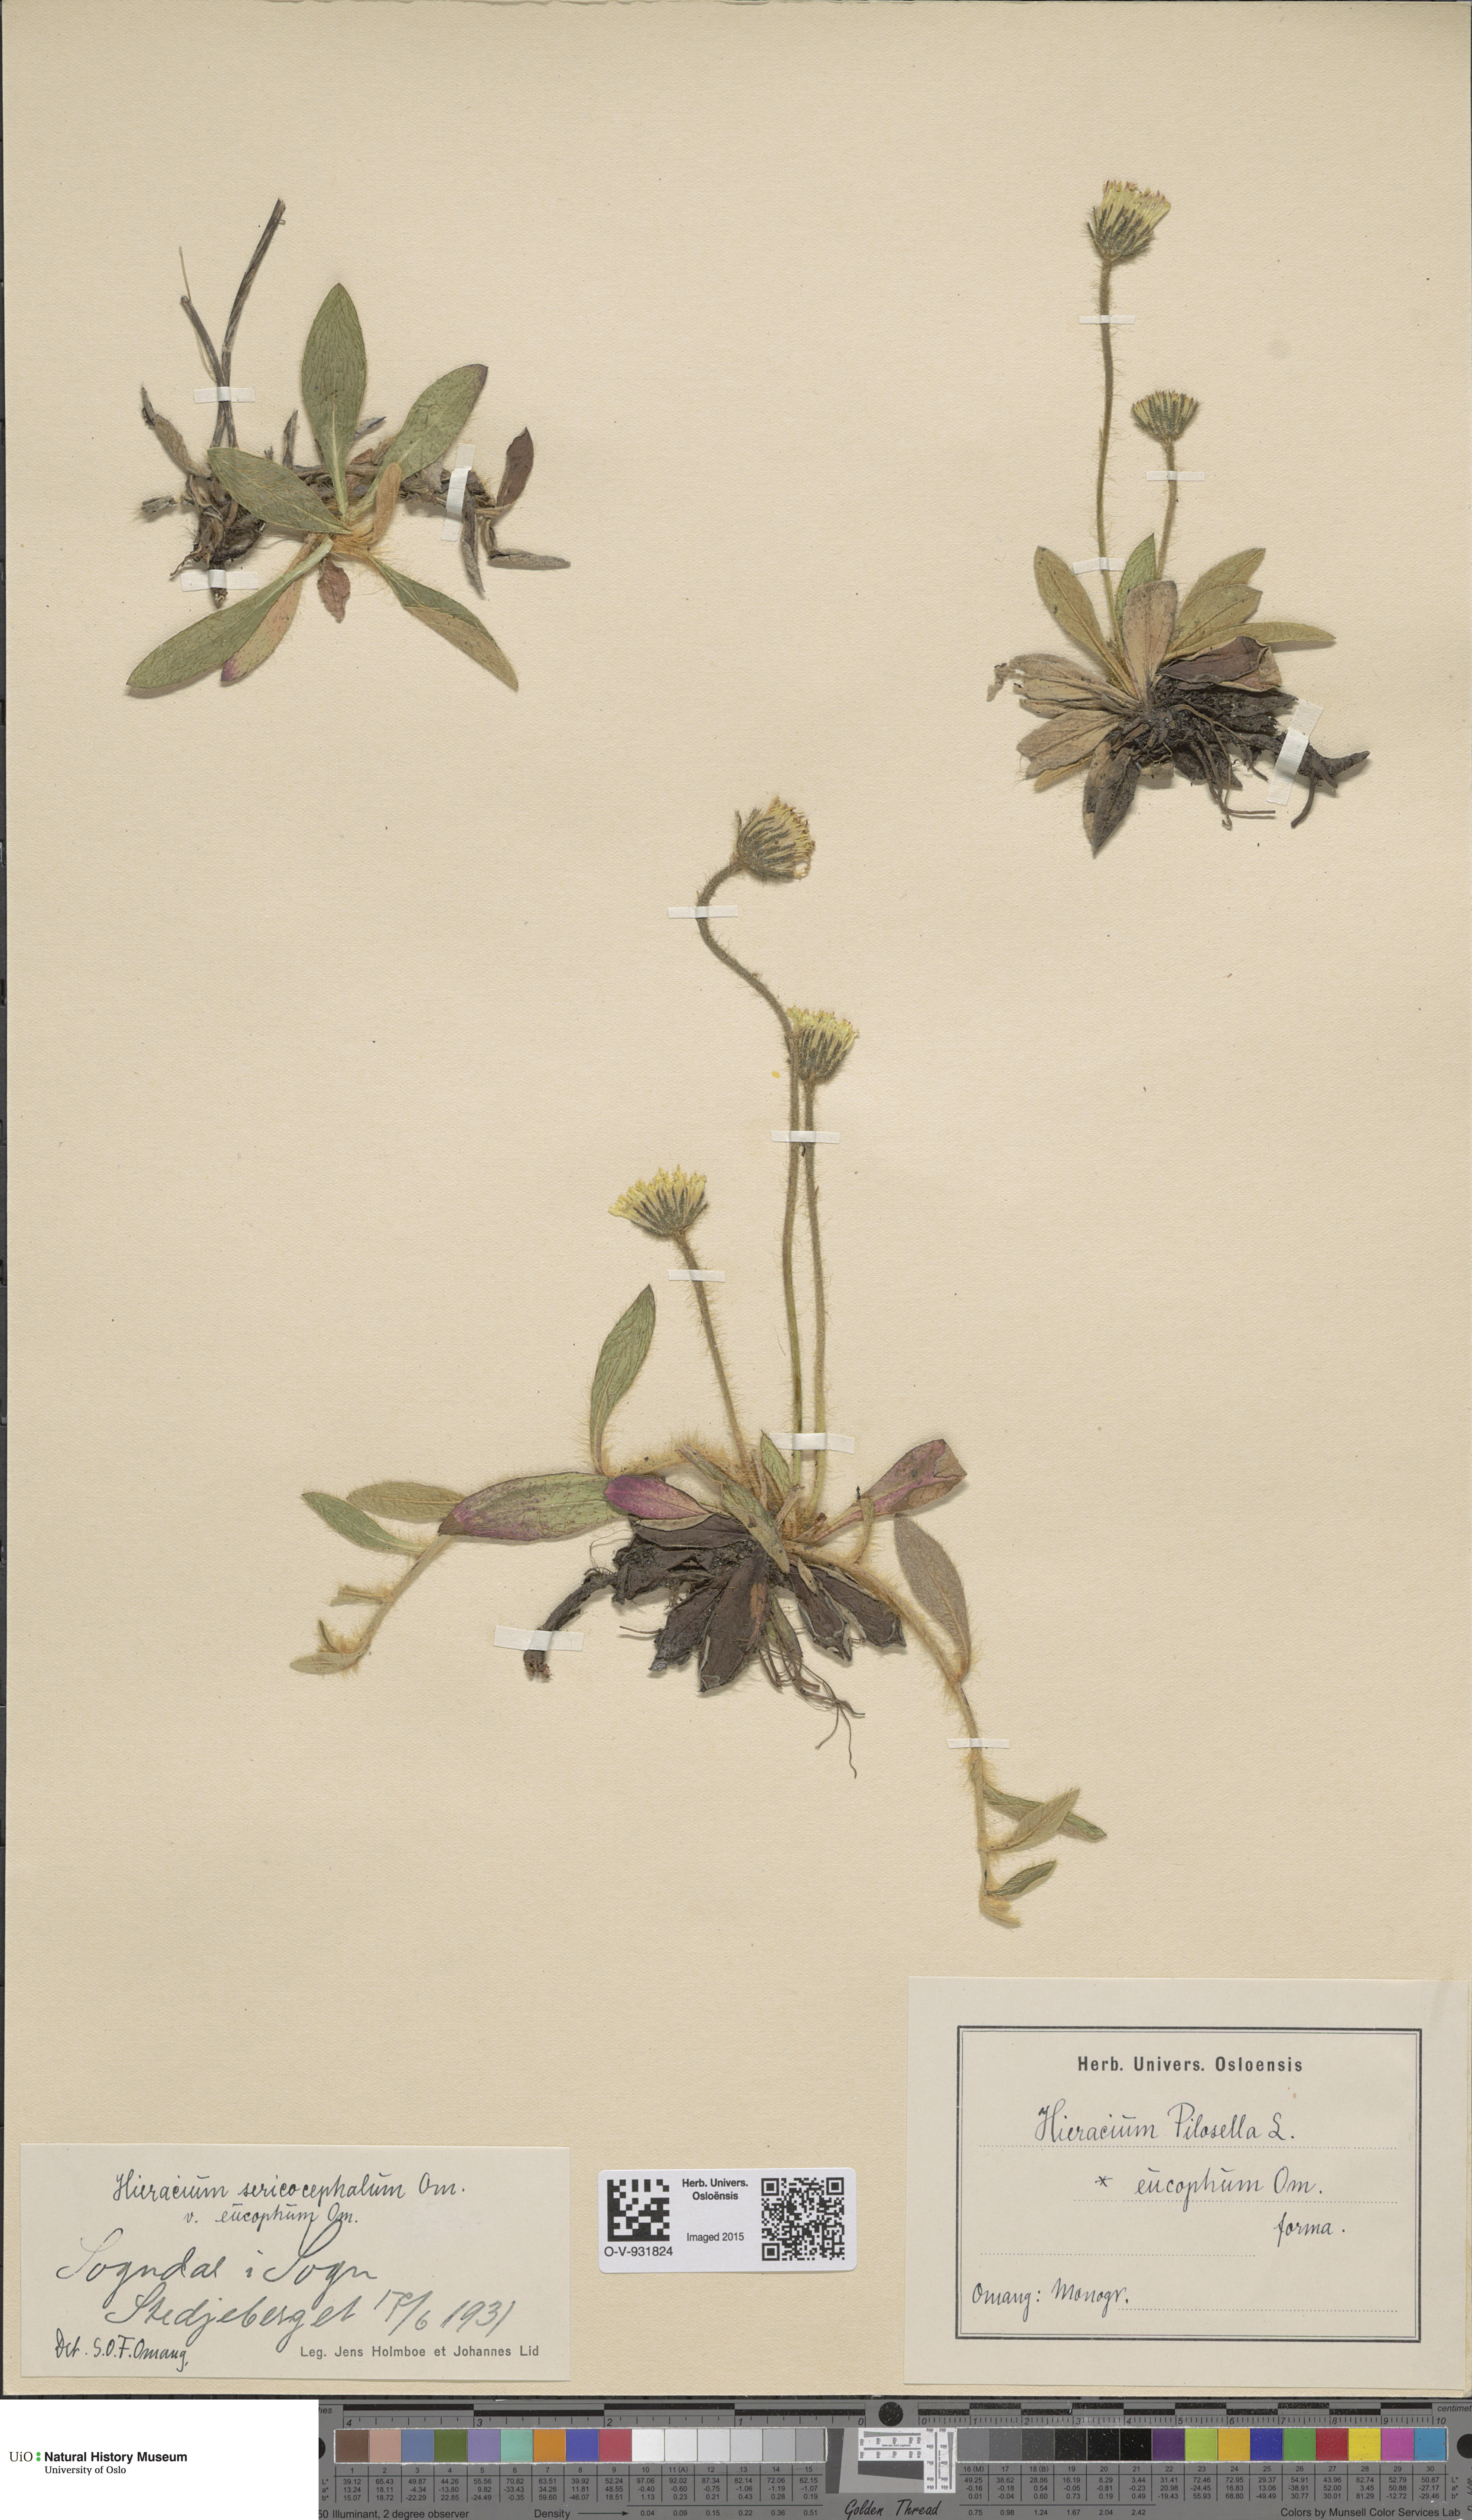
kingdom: Plantae
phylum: Tracheophyta
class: Magnoliopsida
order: Asterales
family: Asteraceae
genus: Pilosella
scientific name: Pilosella officinarum
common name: Mouse-ear hawkweed
